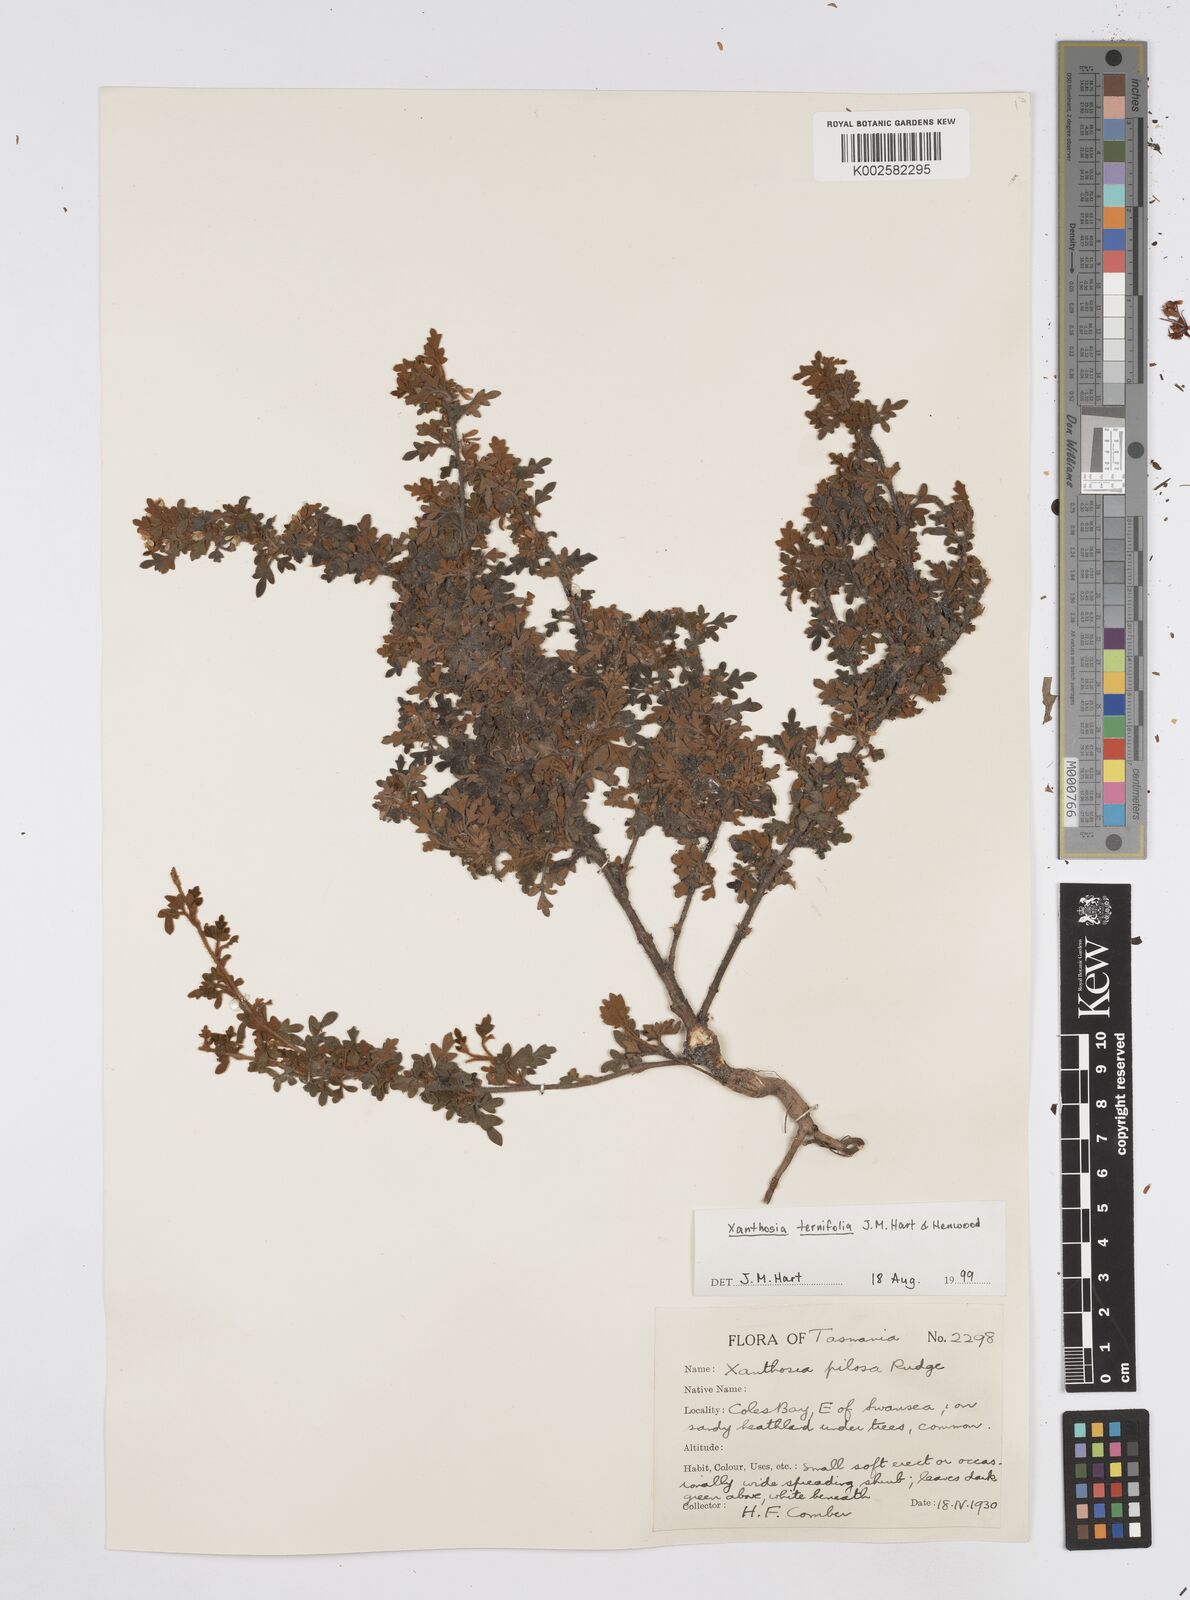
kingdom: Plantae
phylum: Tracheophyta
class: Magnoliopsida
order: Apiales
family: Apiaceae
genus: Xanthosia
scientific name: Xanthosia ternifolia
